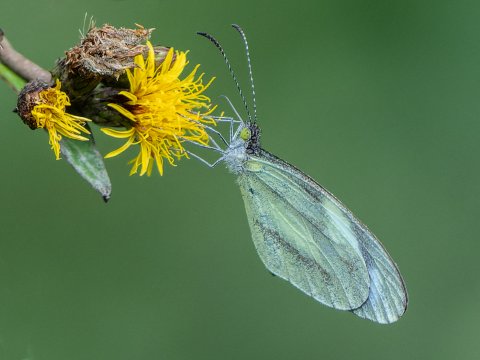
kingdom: Animalia
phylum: Arthropoda
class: Insecta
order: Lepidoptera
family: Pieridae
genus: Abaeis
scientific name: Abaeis albula
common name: Ghost Yellow
